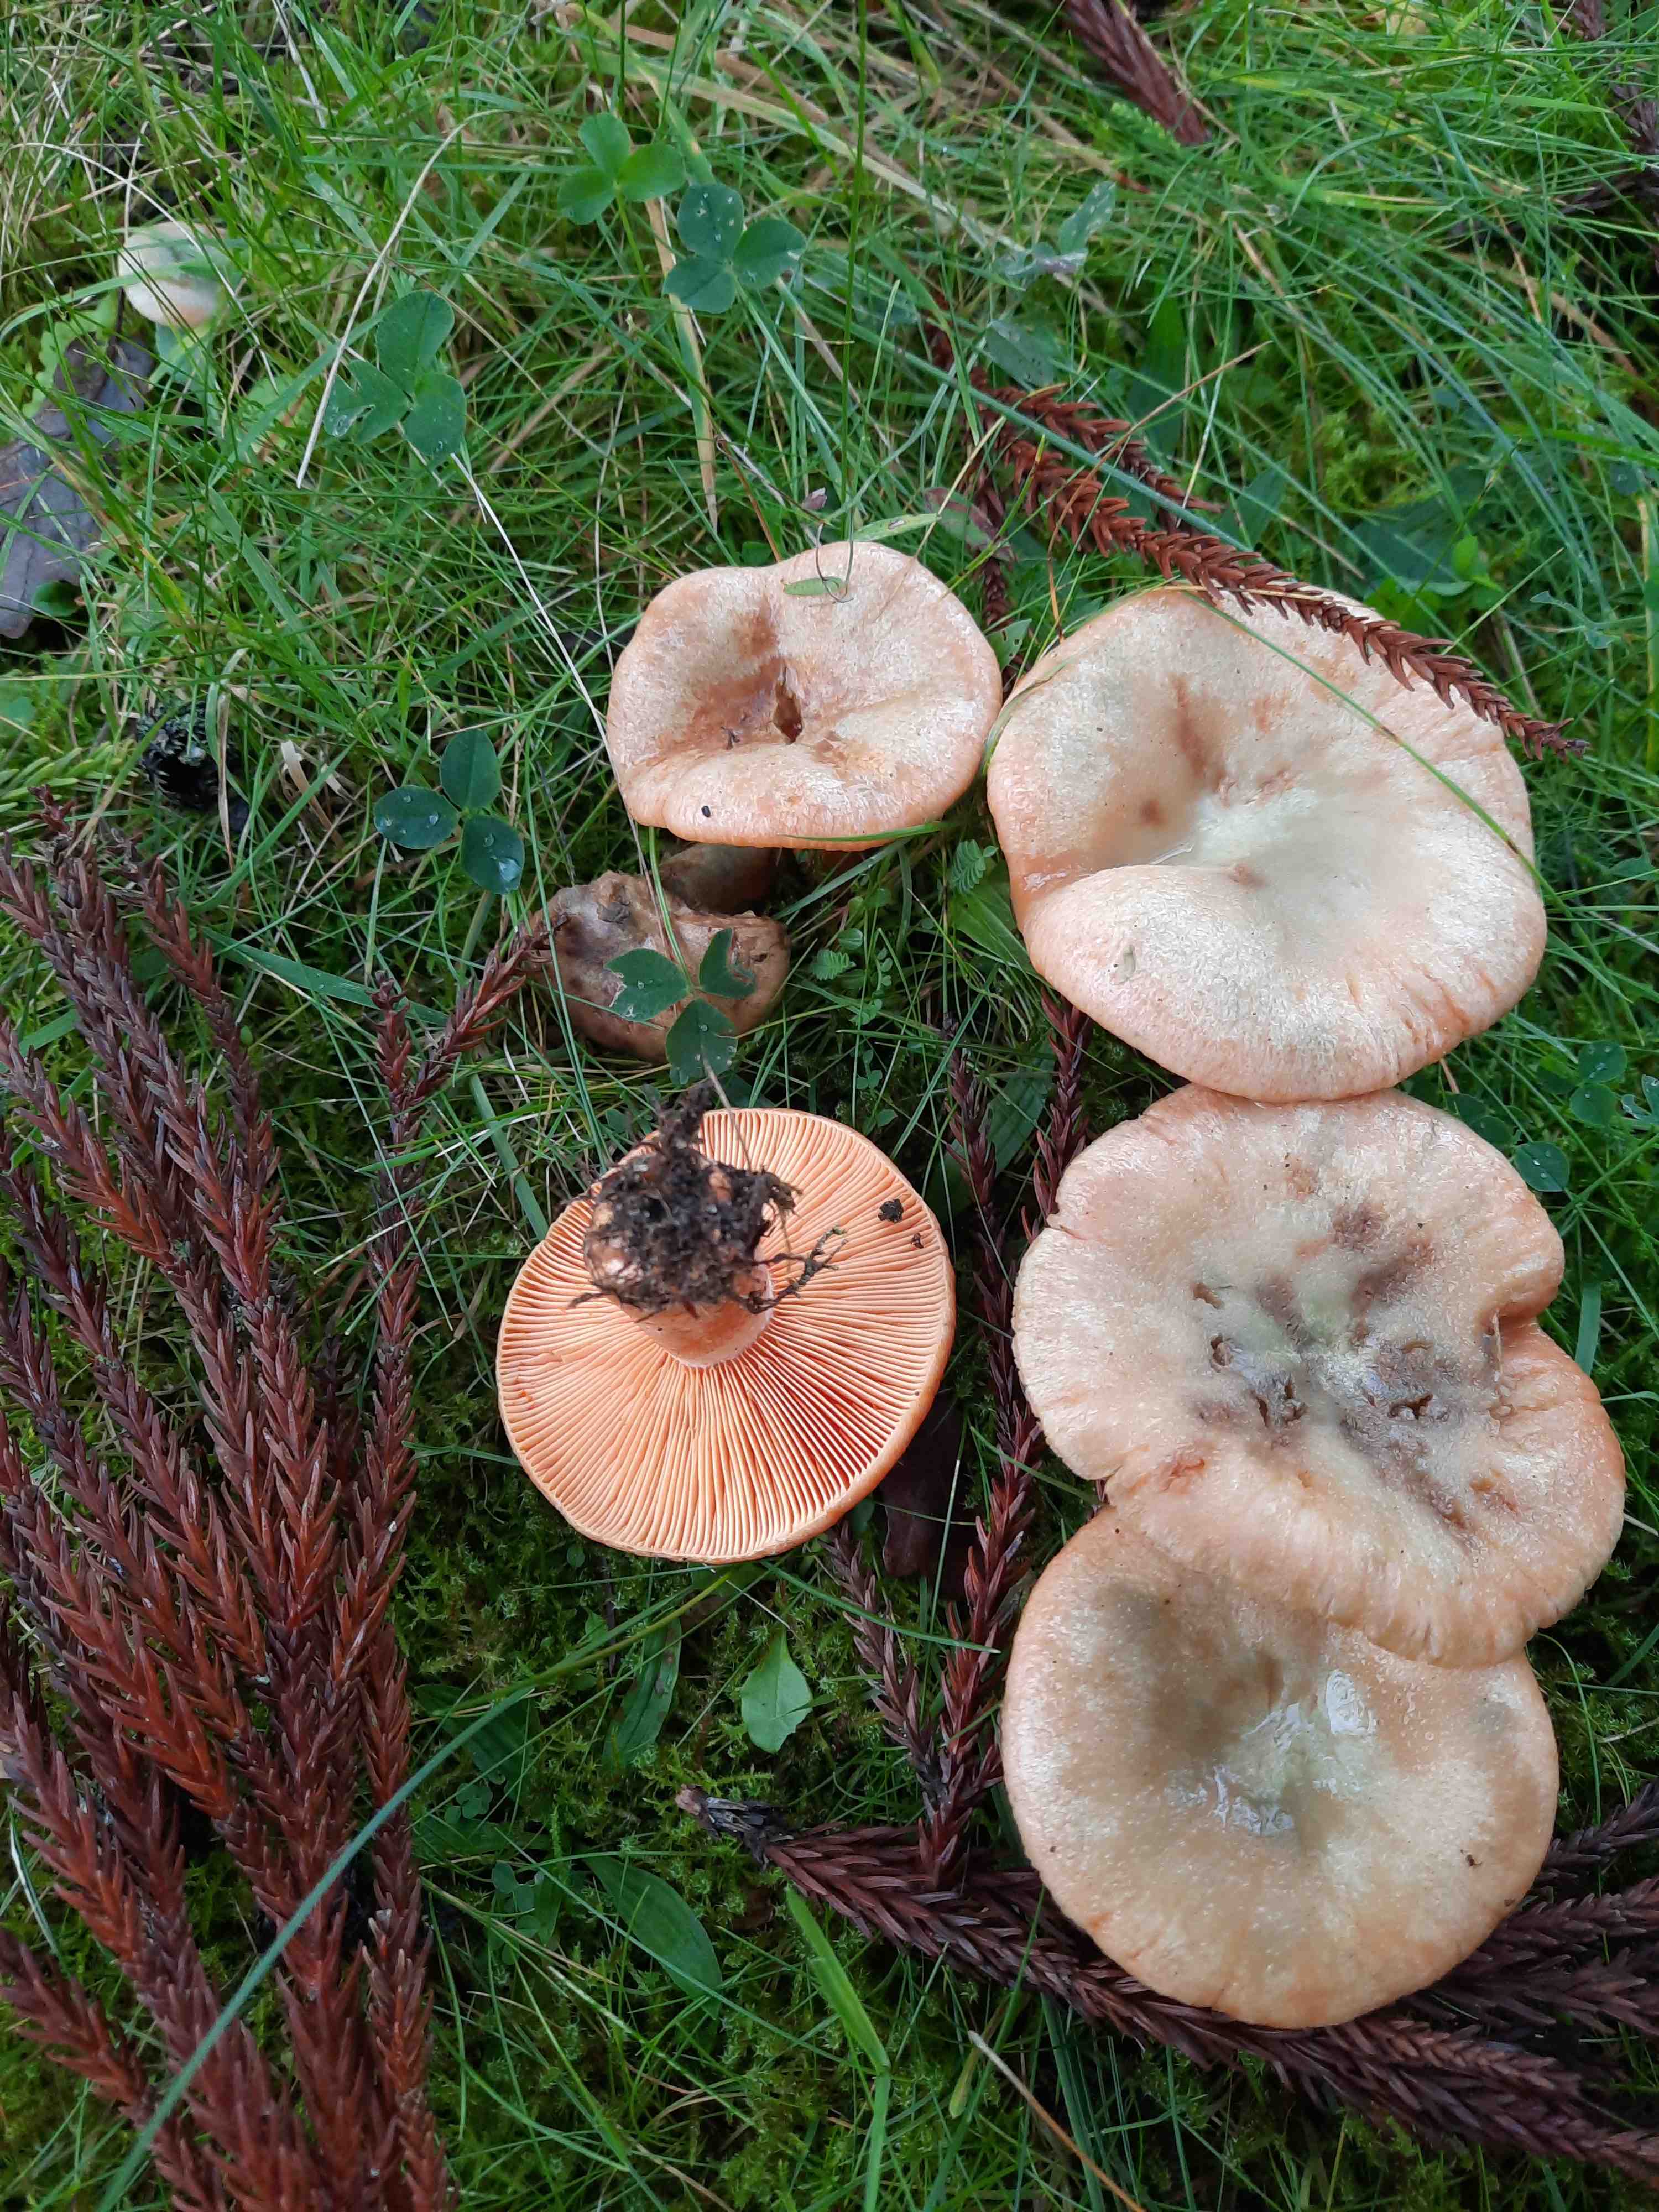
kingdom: Fungi
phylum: Basidiomycota
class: Agaricomycetes
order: Russulales
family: Russulaceae
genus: Lactarius
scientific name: Lactarius deterrimus
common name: gran-mælkehat
